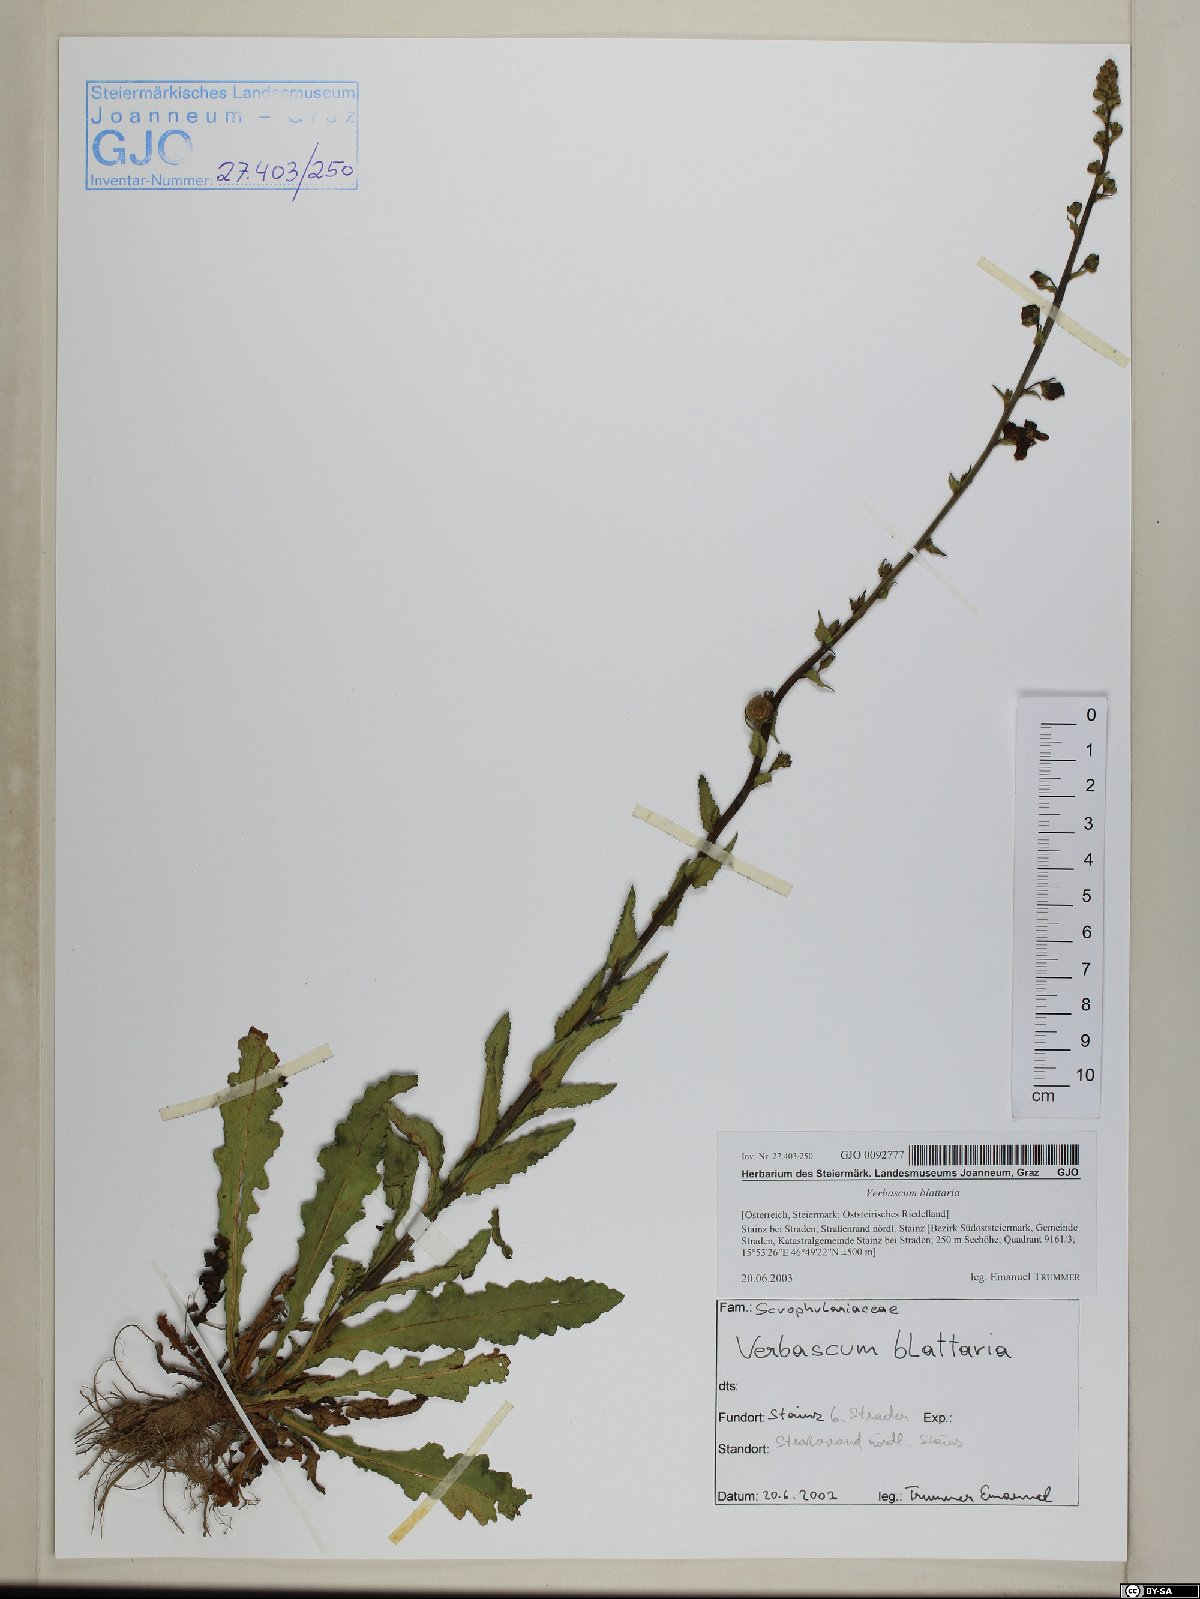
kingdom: Plantae
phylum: Tracheophyta
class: Magnoliopsida
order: Lamiales
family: Scrophulariaceae
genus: Verbascum
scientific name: Verbascum blattaria
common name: Moth mullein
